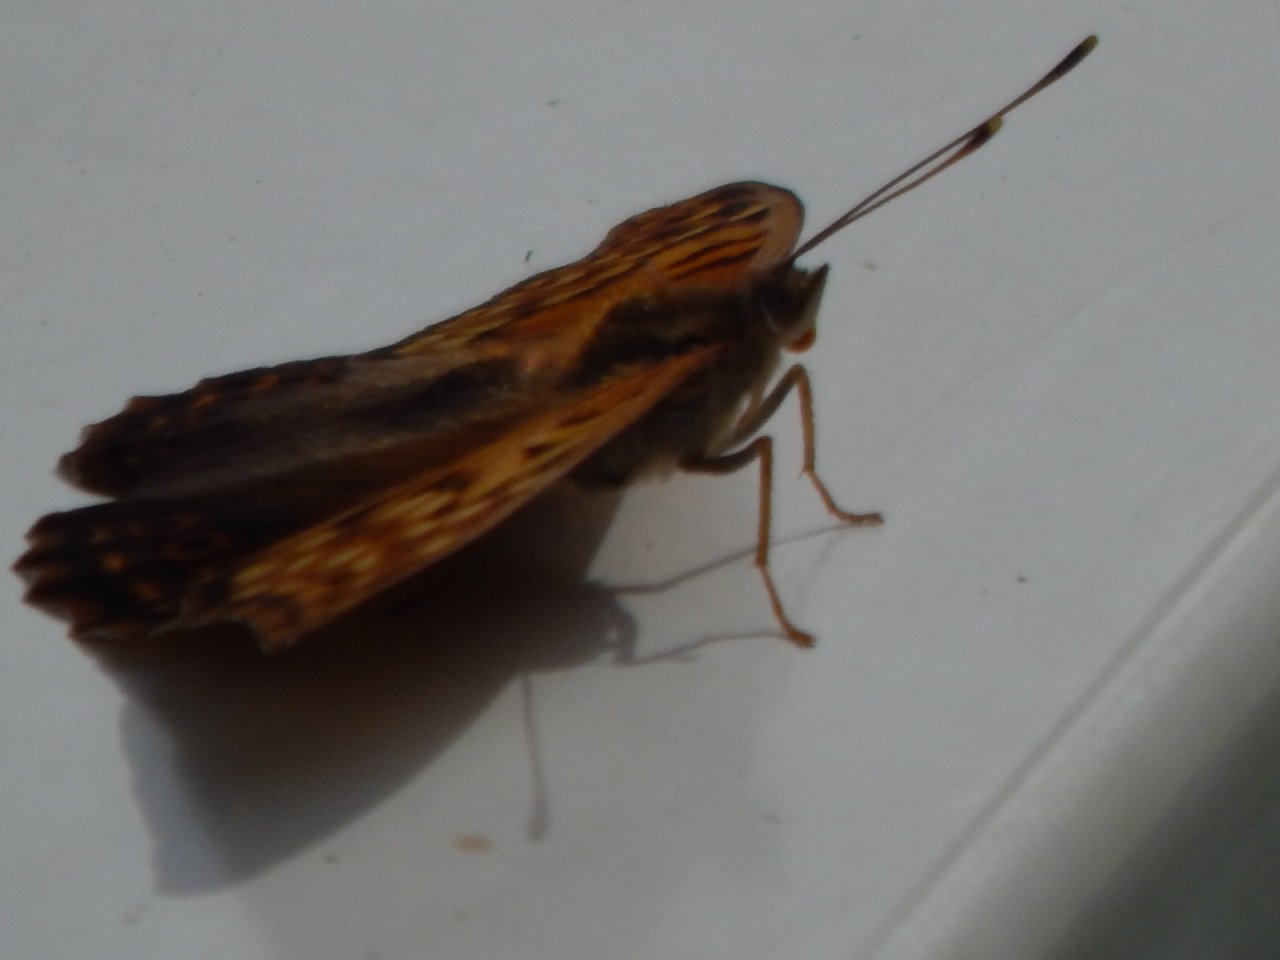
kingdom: Animalia
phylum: Arthropoda
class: Insecta
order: Lepidoptera
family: Nymphalidae
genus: Asterocampa
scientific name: Asterocampa clyton
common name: Tawny Emperor
